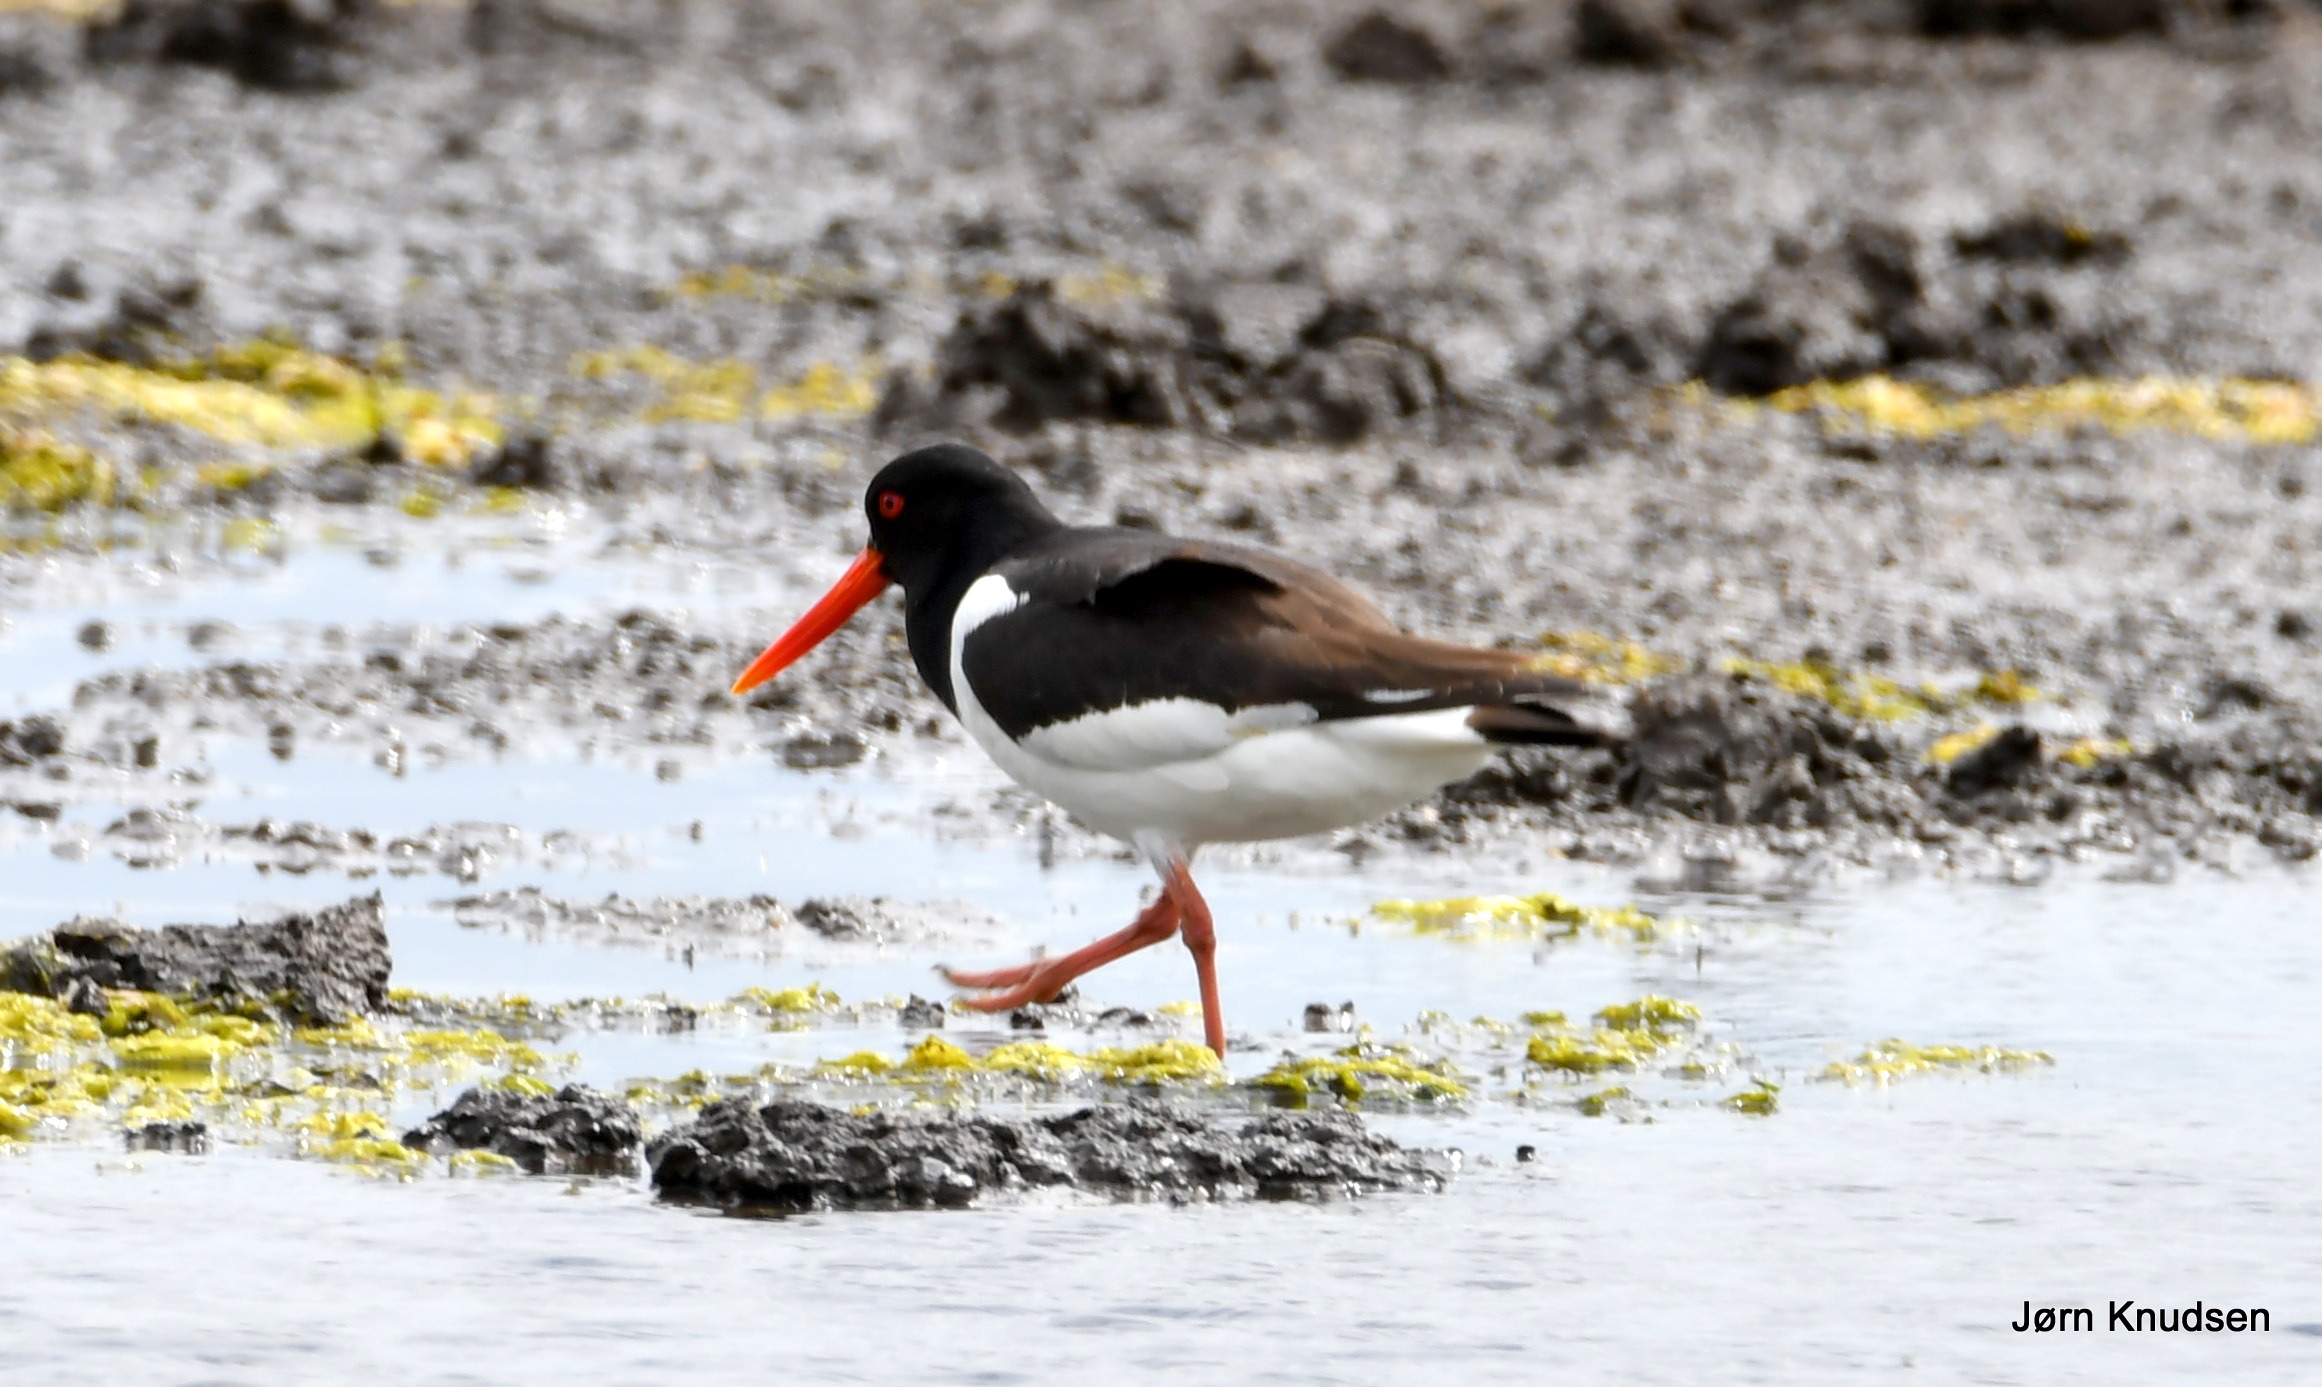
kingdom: Animalia
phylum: Chordata
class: Aves
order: Charadriiformes
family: Haematopodidae
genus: Haematopus
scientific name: Haematopus ostralegus
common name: Strandskade
